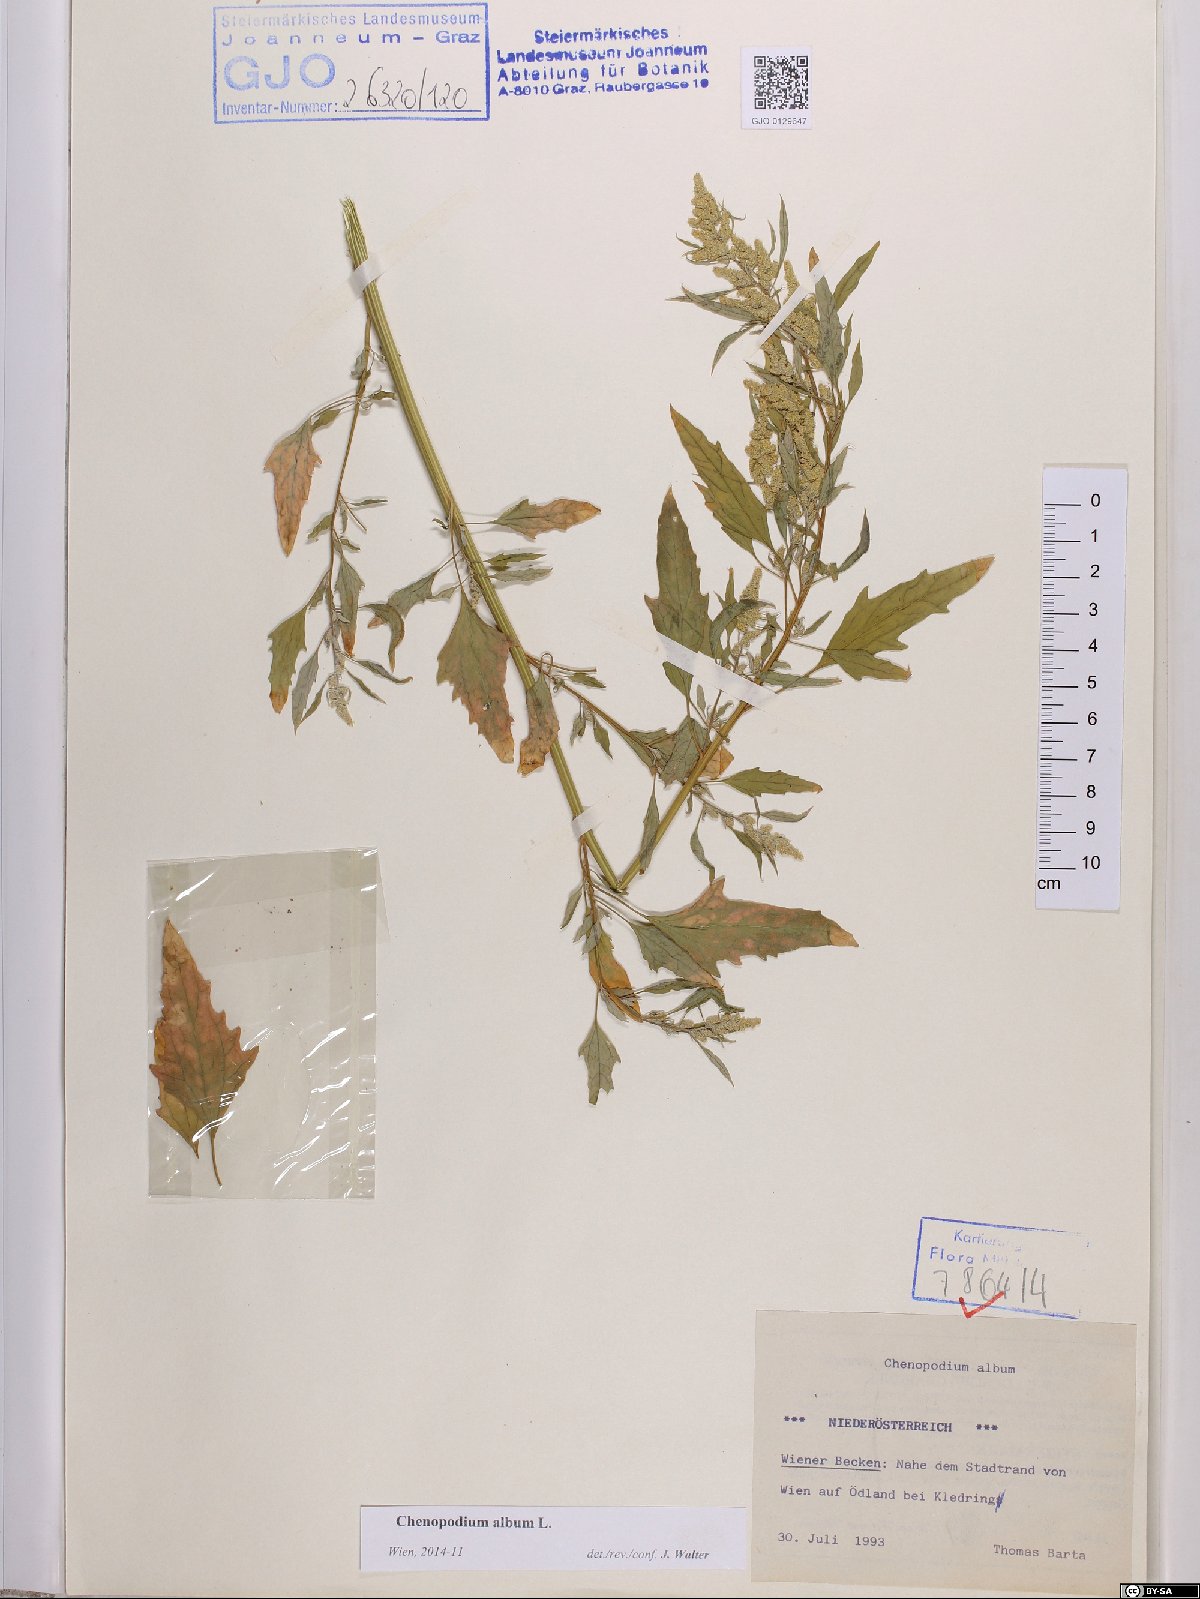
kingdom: Plantae
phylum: Tracheophyta
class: Magnoliopsida
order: Caryophyllales
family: Amaranthaceae
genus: Chenopodium
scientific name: Chenopodium album
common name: Fat-hen
